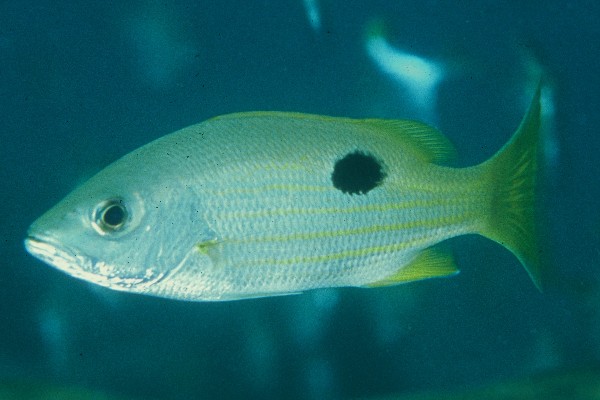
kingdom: Animalia
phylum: Chordata
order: Perciformes
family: Lutjanidae
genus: Lutjanus
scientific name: Lutjanus ehrenbergii
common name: Blackspot snapper
